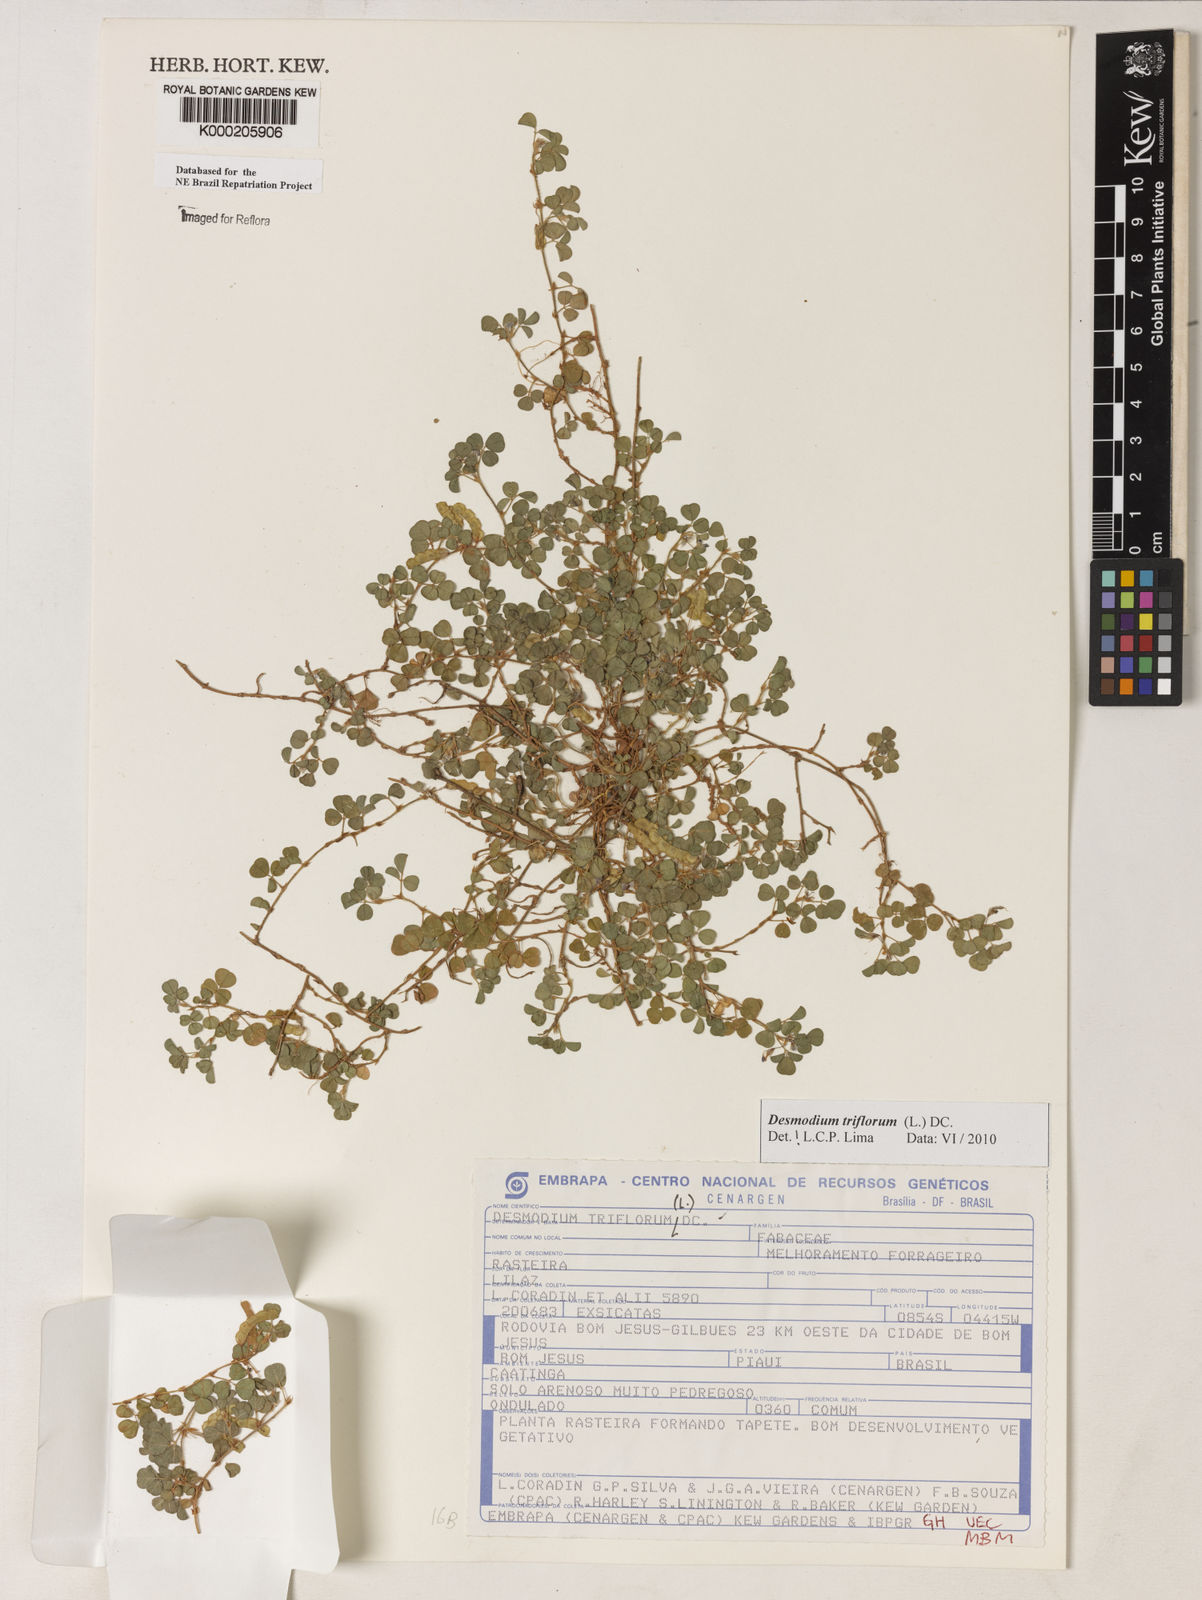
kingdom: Plantae
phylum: Tracheophyta
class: Magnoliopsida
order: Fabales
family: Fabaceae
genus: Grona
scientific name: Grona triflora
